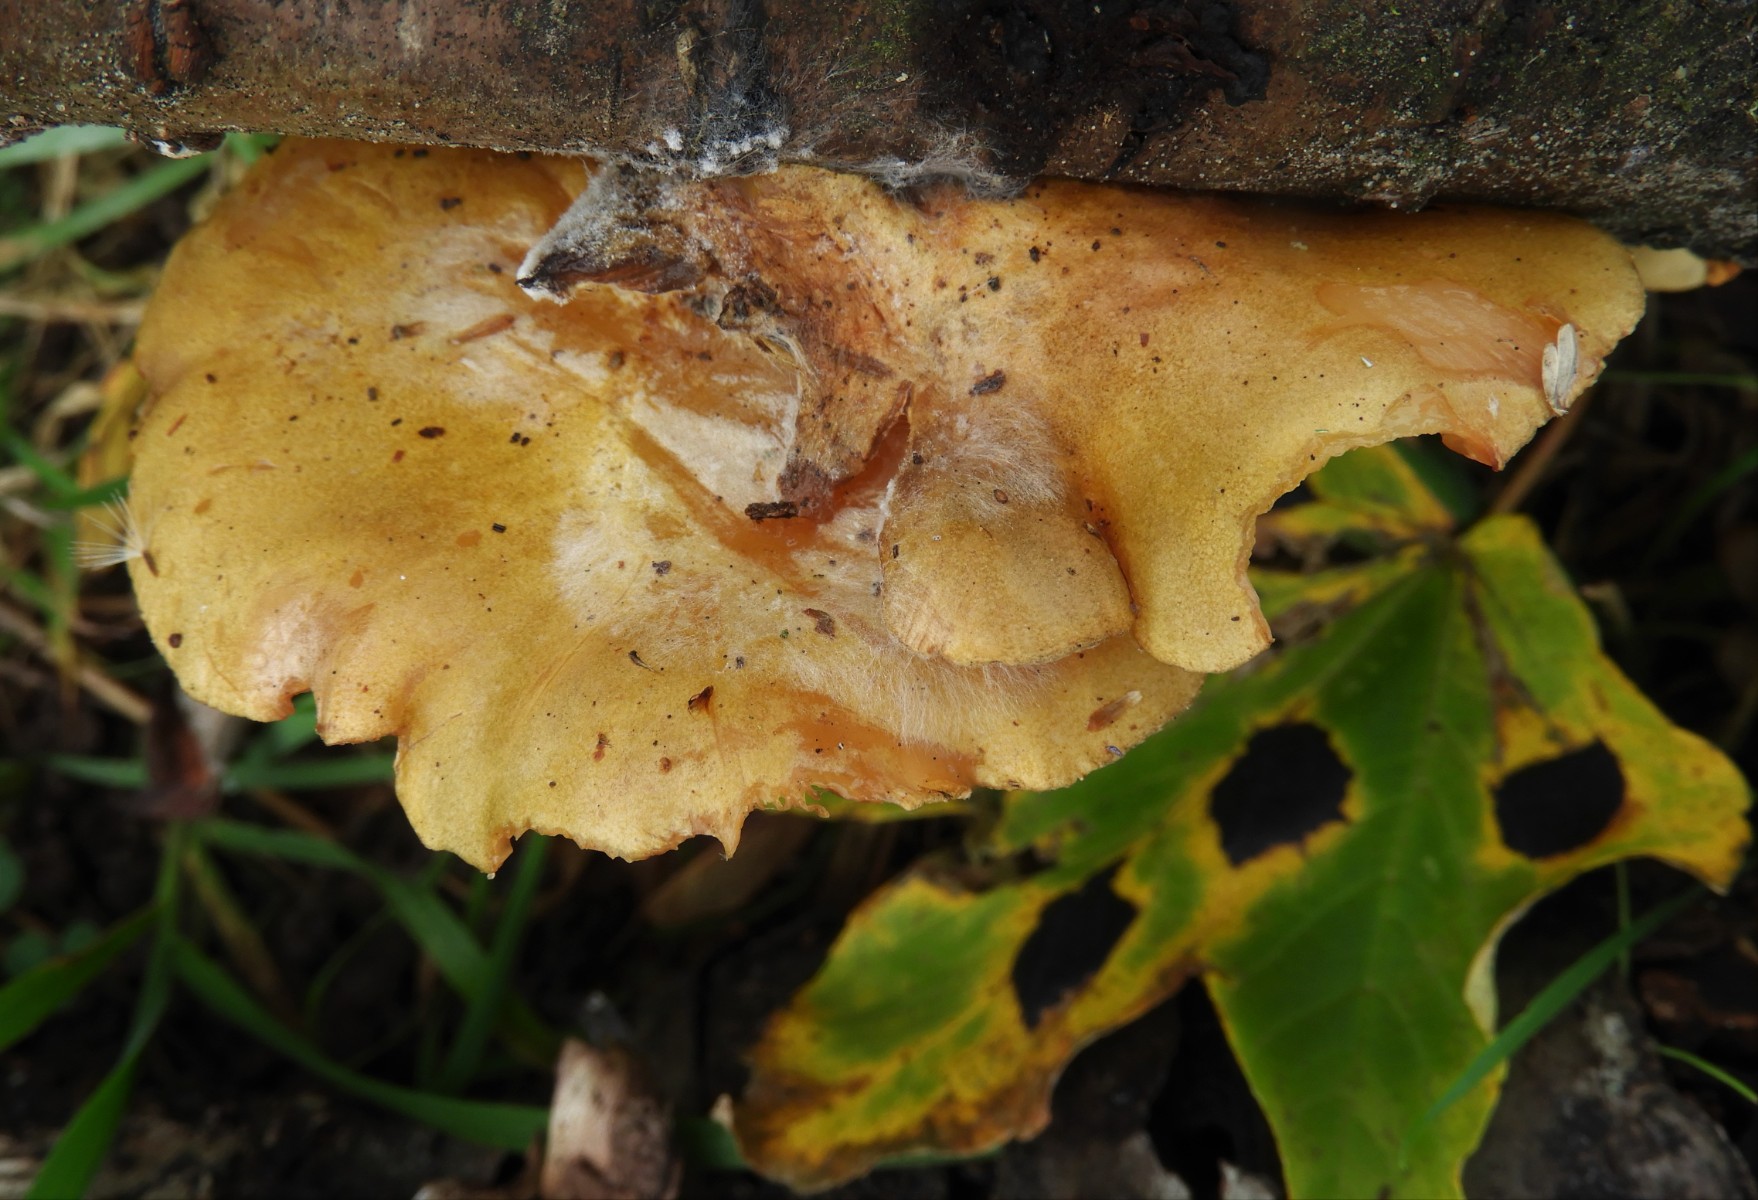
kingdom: Fungi
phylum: Basidiomycota
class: Agaricomycetes
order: Agaricales
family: Sarcomyxaceae
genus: Sarcomyxa
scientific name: Sarcomyxa serotina
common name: gummihat
